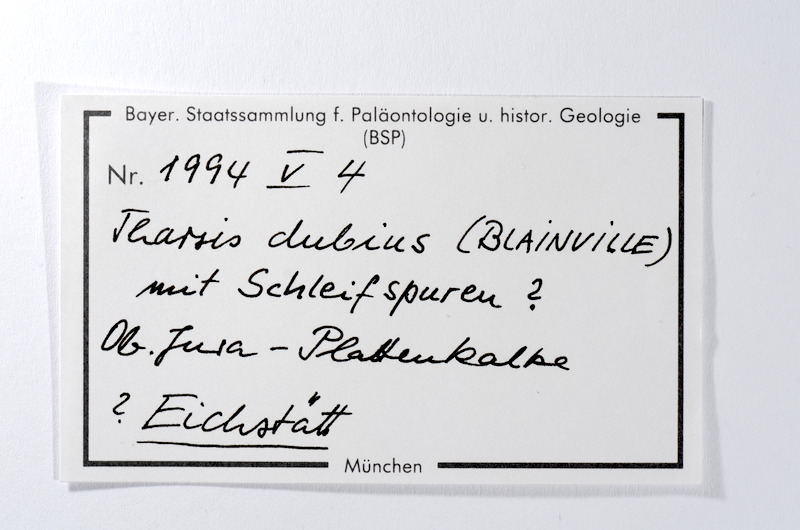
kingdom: Animalia
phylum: Chordata
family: Ascalaboidae
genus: Tharsis
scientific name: Tharsis dubius
